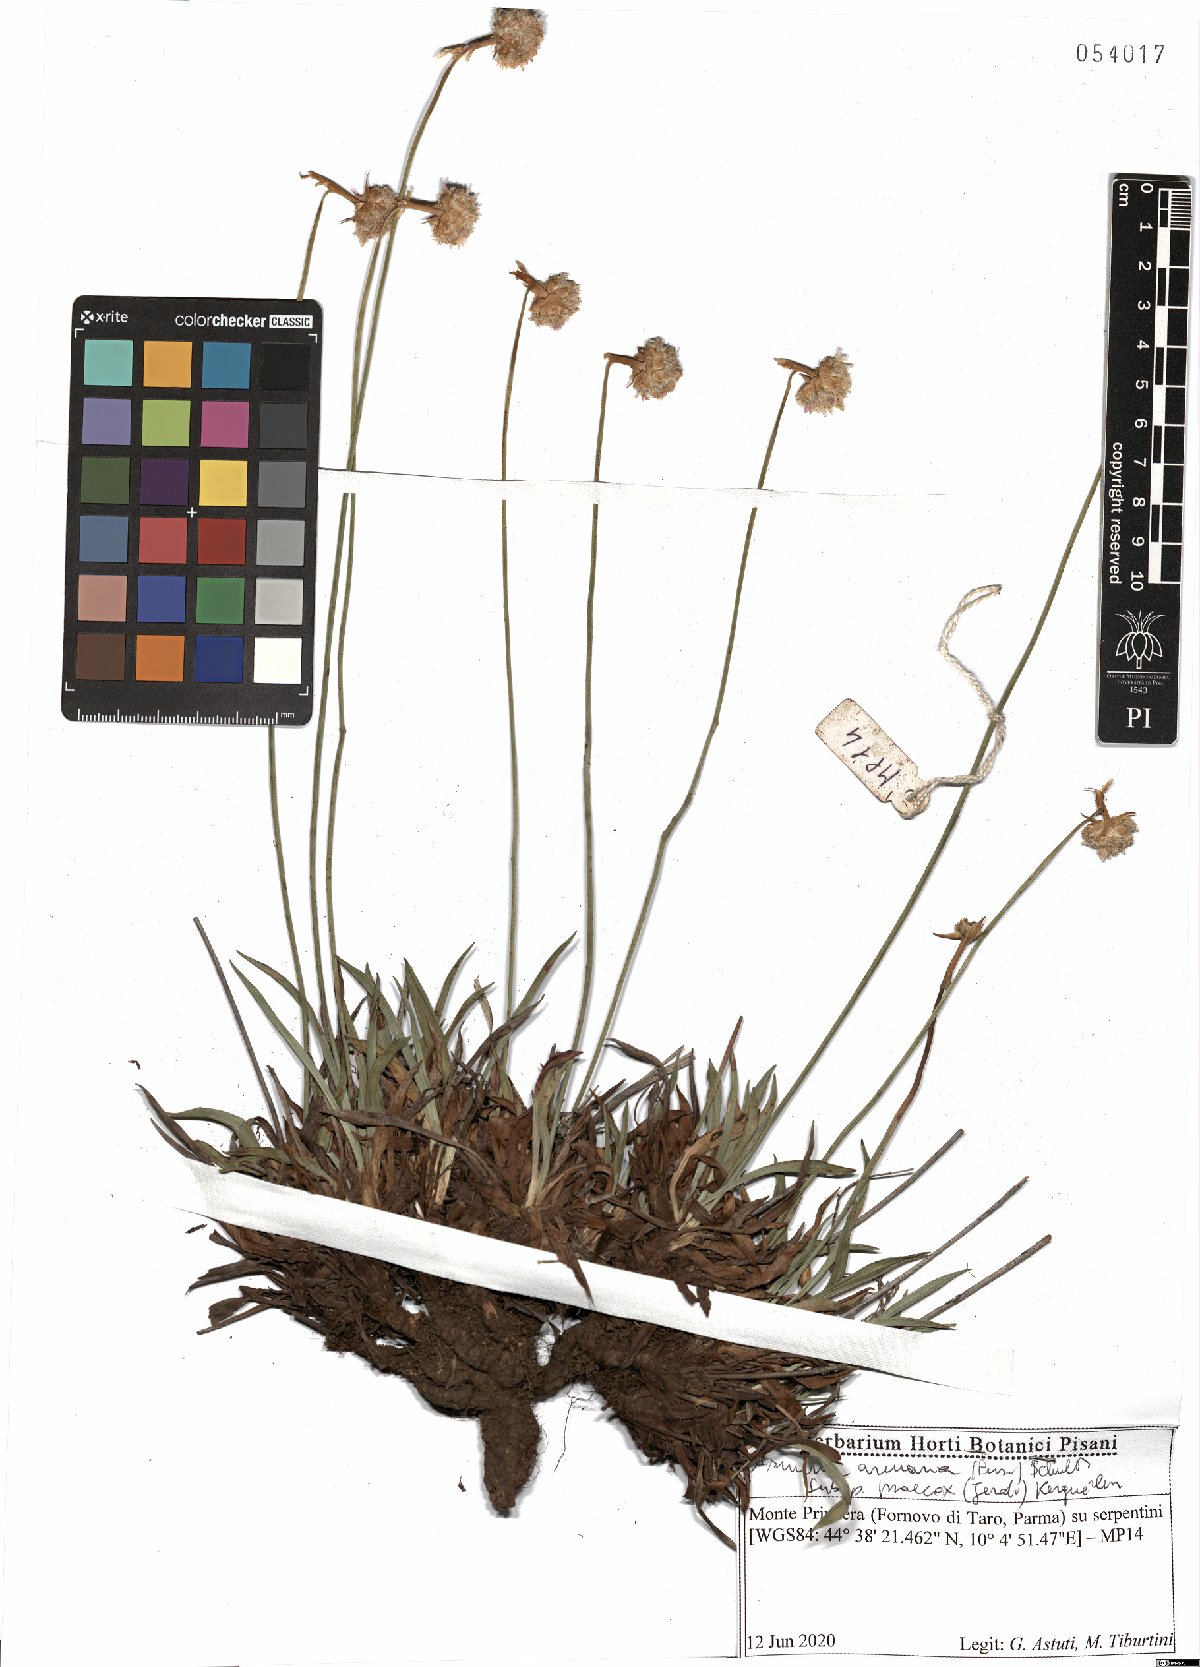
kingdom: Plantae
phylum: Tracheophyta
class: Magnoliopsida
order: Caryophyllales
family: Plumbaginaceae
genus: Armeria
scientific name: Armeria arenaria
